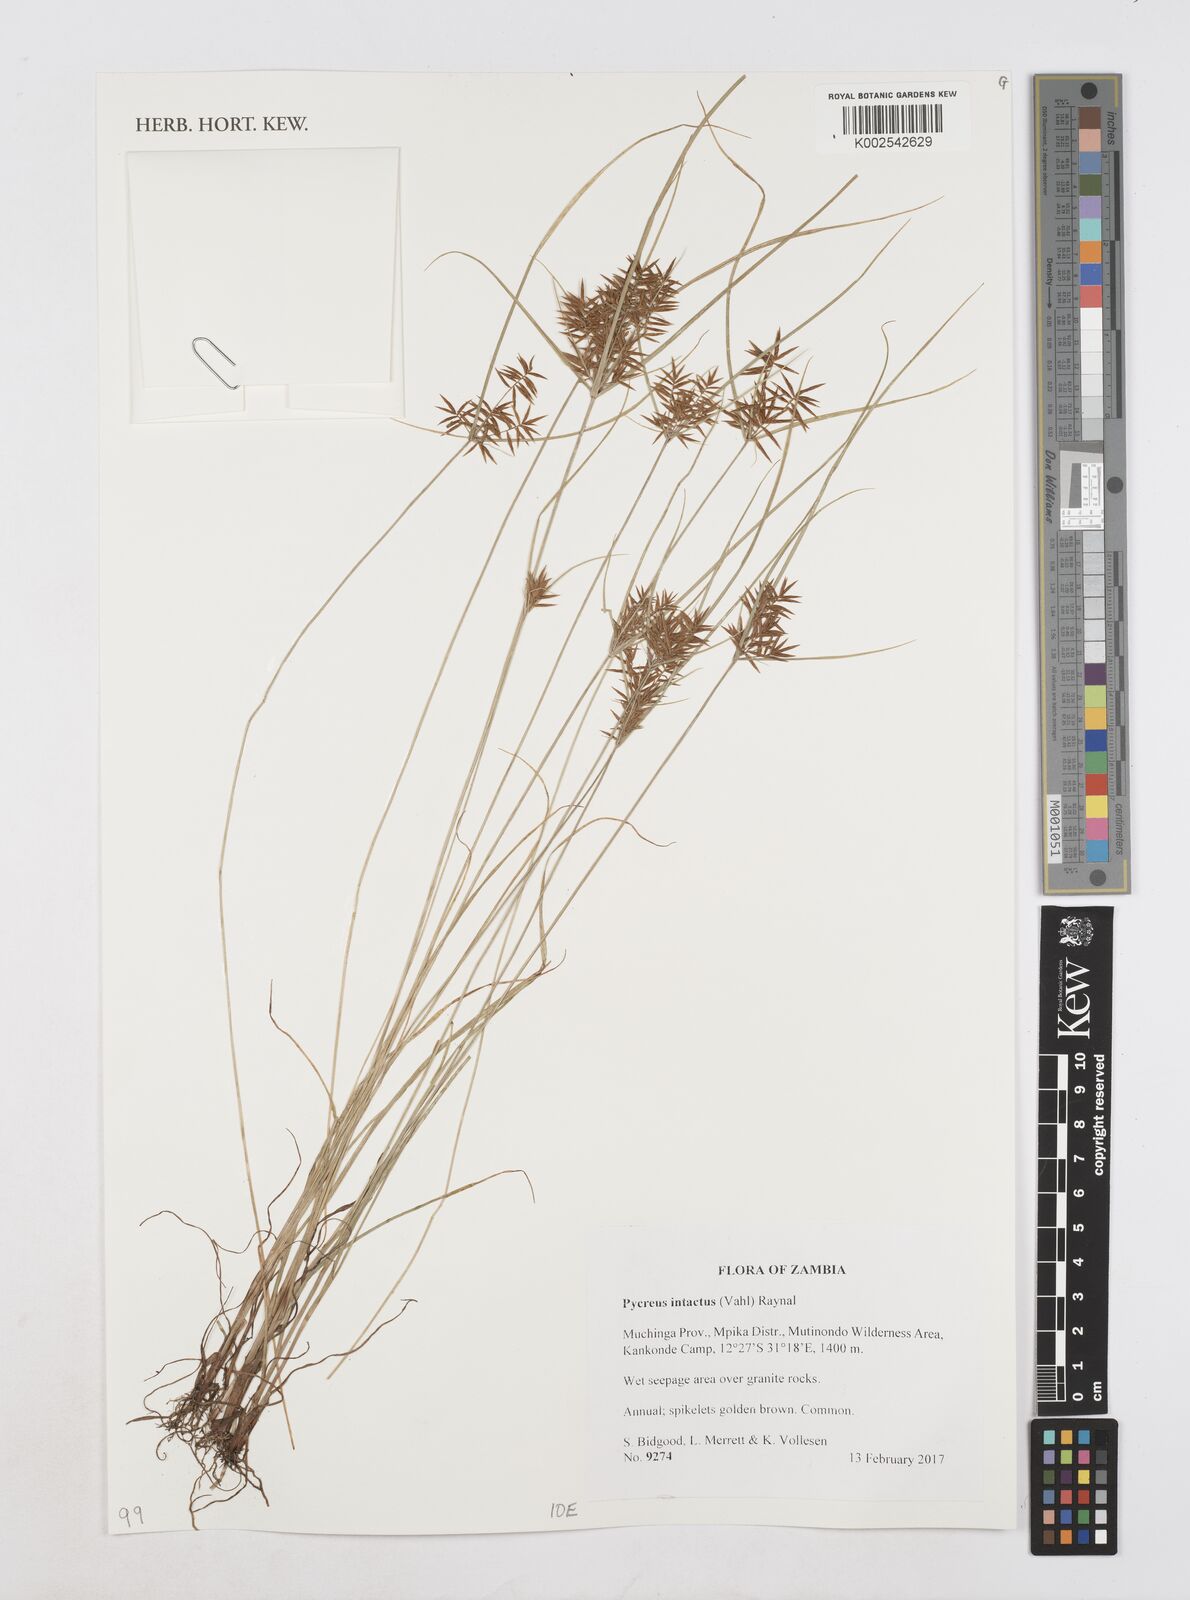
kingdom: Plantae
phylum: Tracheophyta
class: Liliopsida
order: Poales
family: Cyperaceae
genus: Cyperus
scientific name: Cyperus intactus
